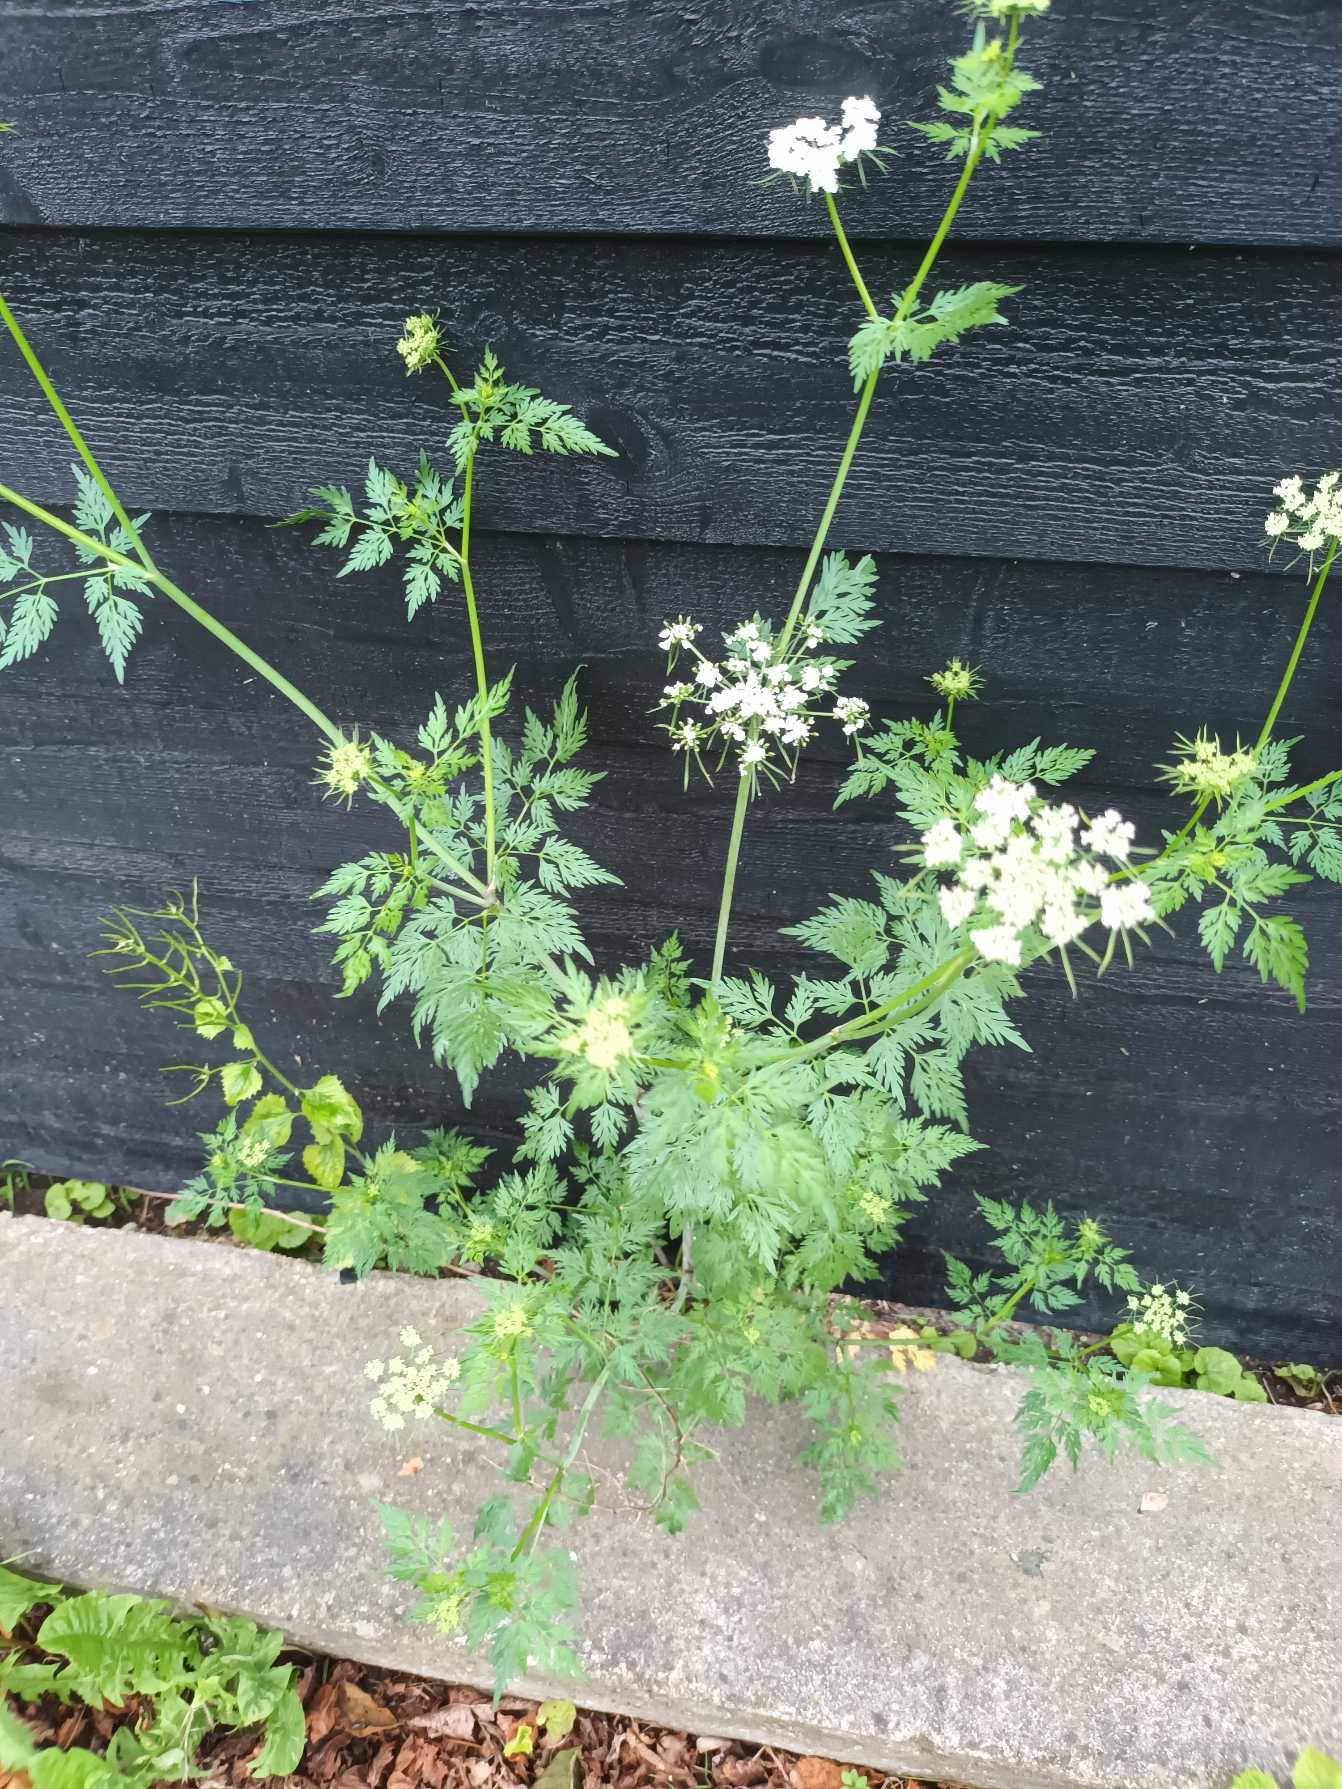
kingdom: Plantae
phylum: Tracheophyta
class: Magnoliopsida
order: Apiales
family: Apiaceae
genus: Aethusa
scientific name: Aethusa cynapium
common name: Stor hundepersille
